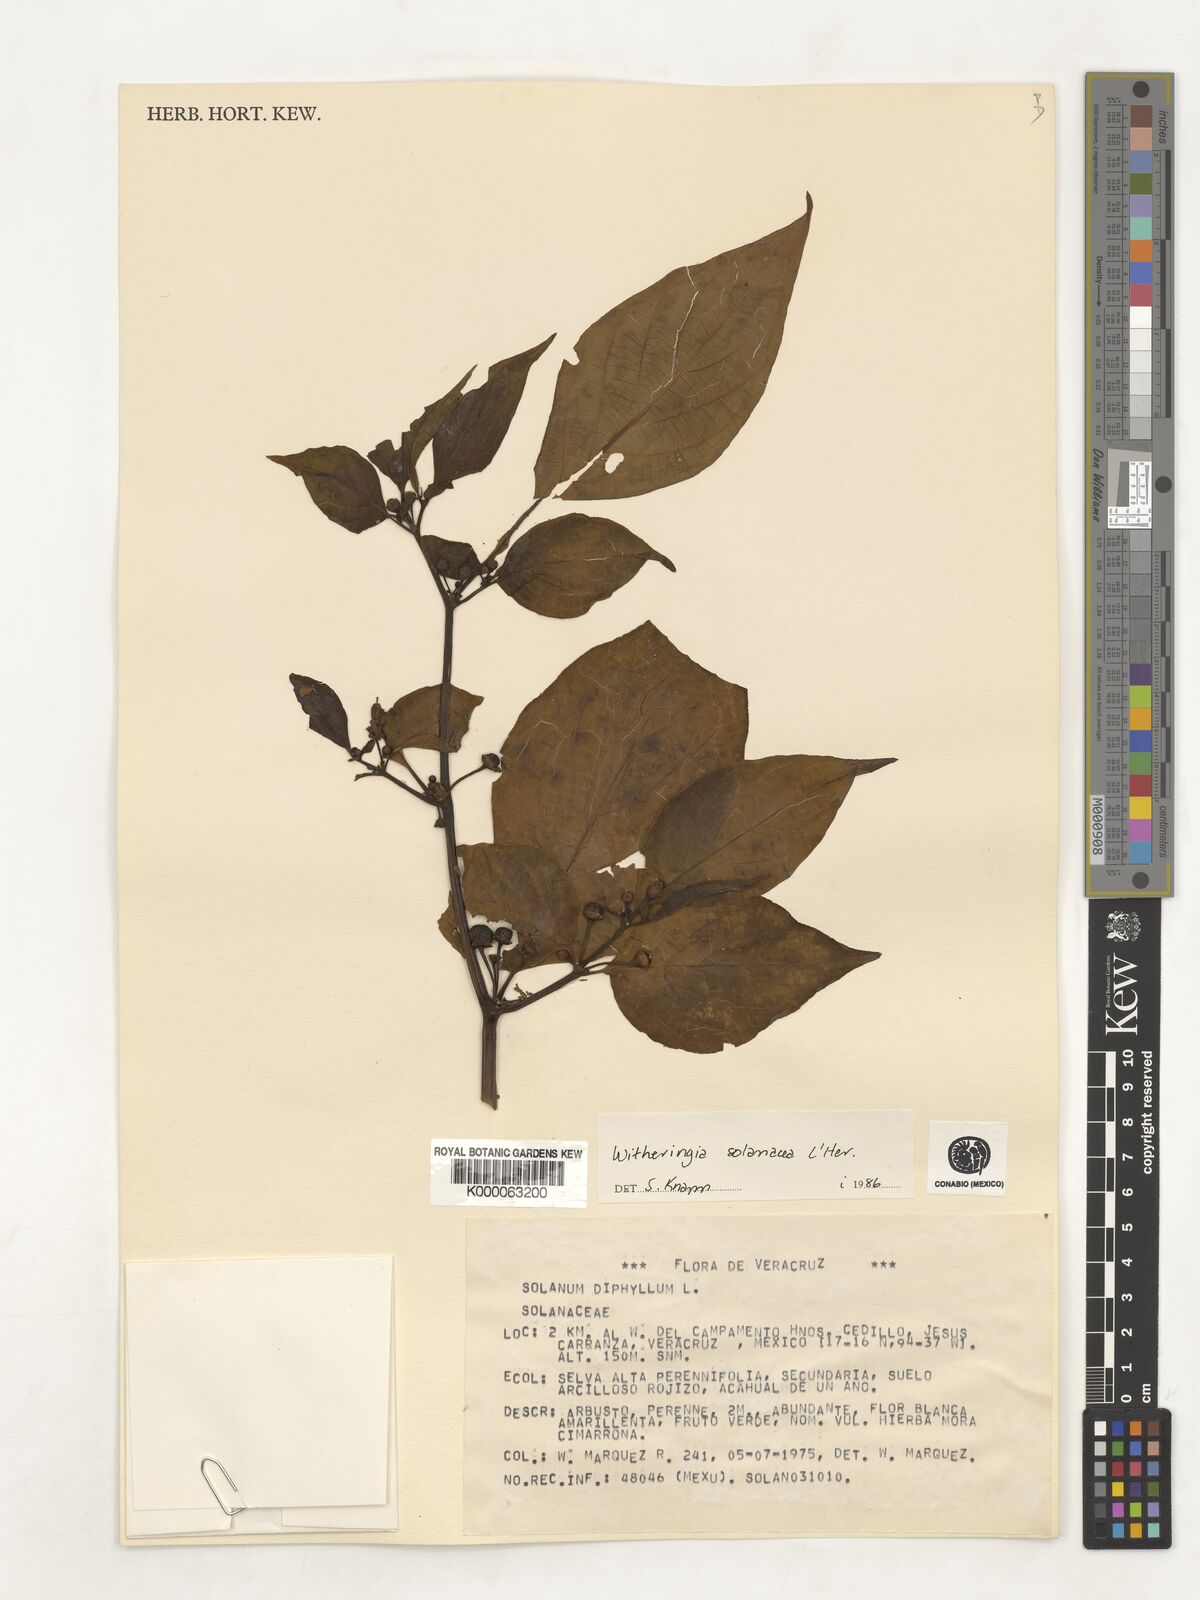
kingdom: Plantae
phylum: Tracheophyta
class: Magnoliopsida
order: Solanales
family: Solanaceae
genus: Witheringia
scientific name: Witheringia
